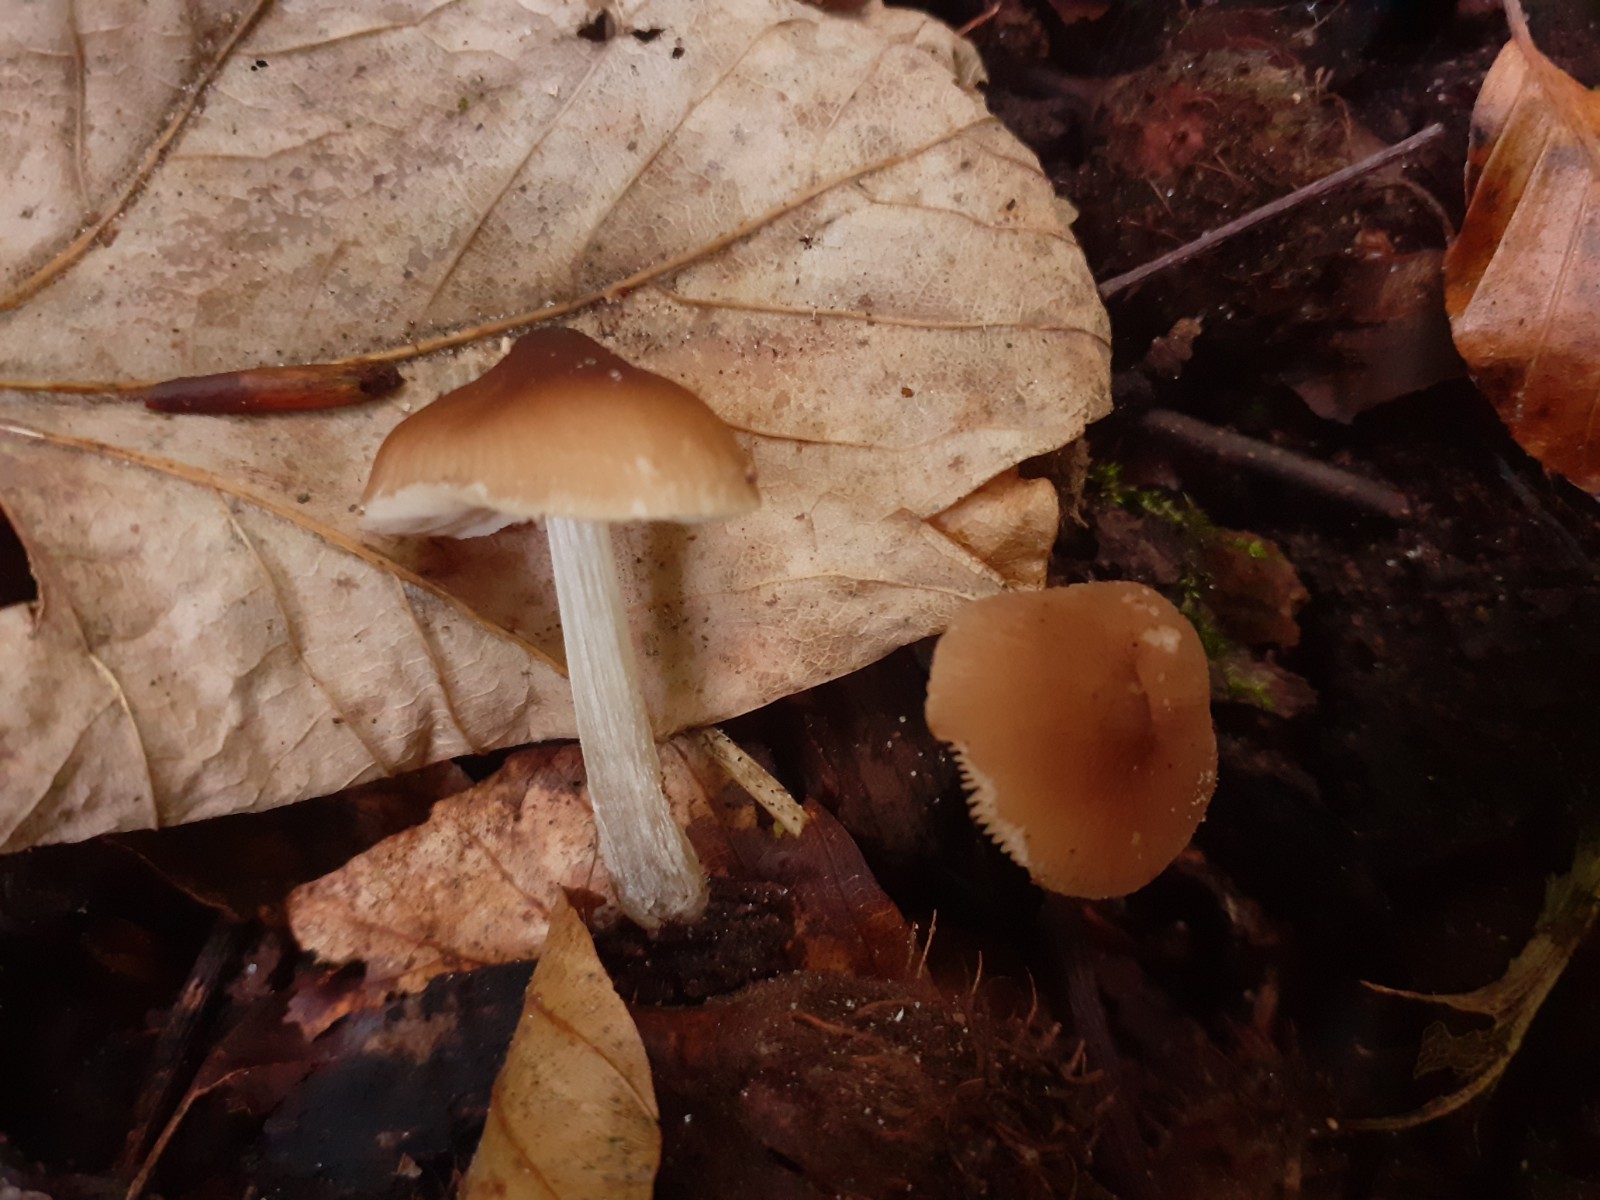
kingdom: Fungi
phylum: Basidiomycota
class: Agaricomycetes
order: Agaricales
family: Pluteaceae
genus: Pluteus
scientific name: Pluteus phlebophorus
